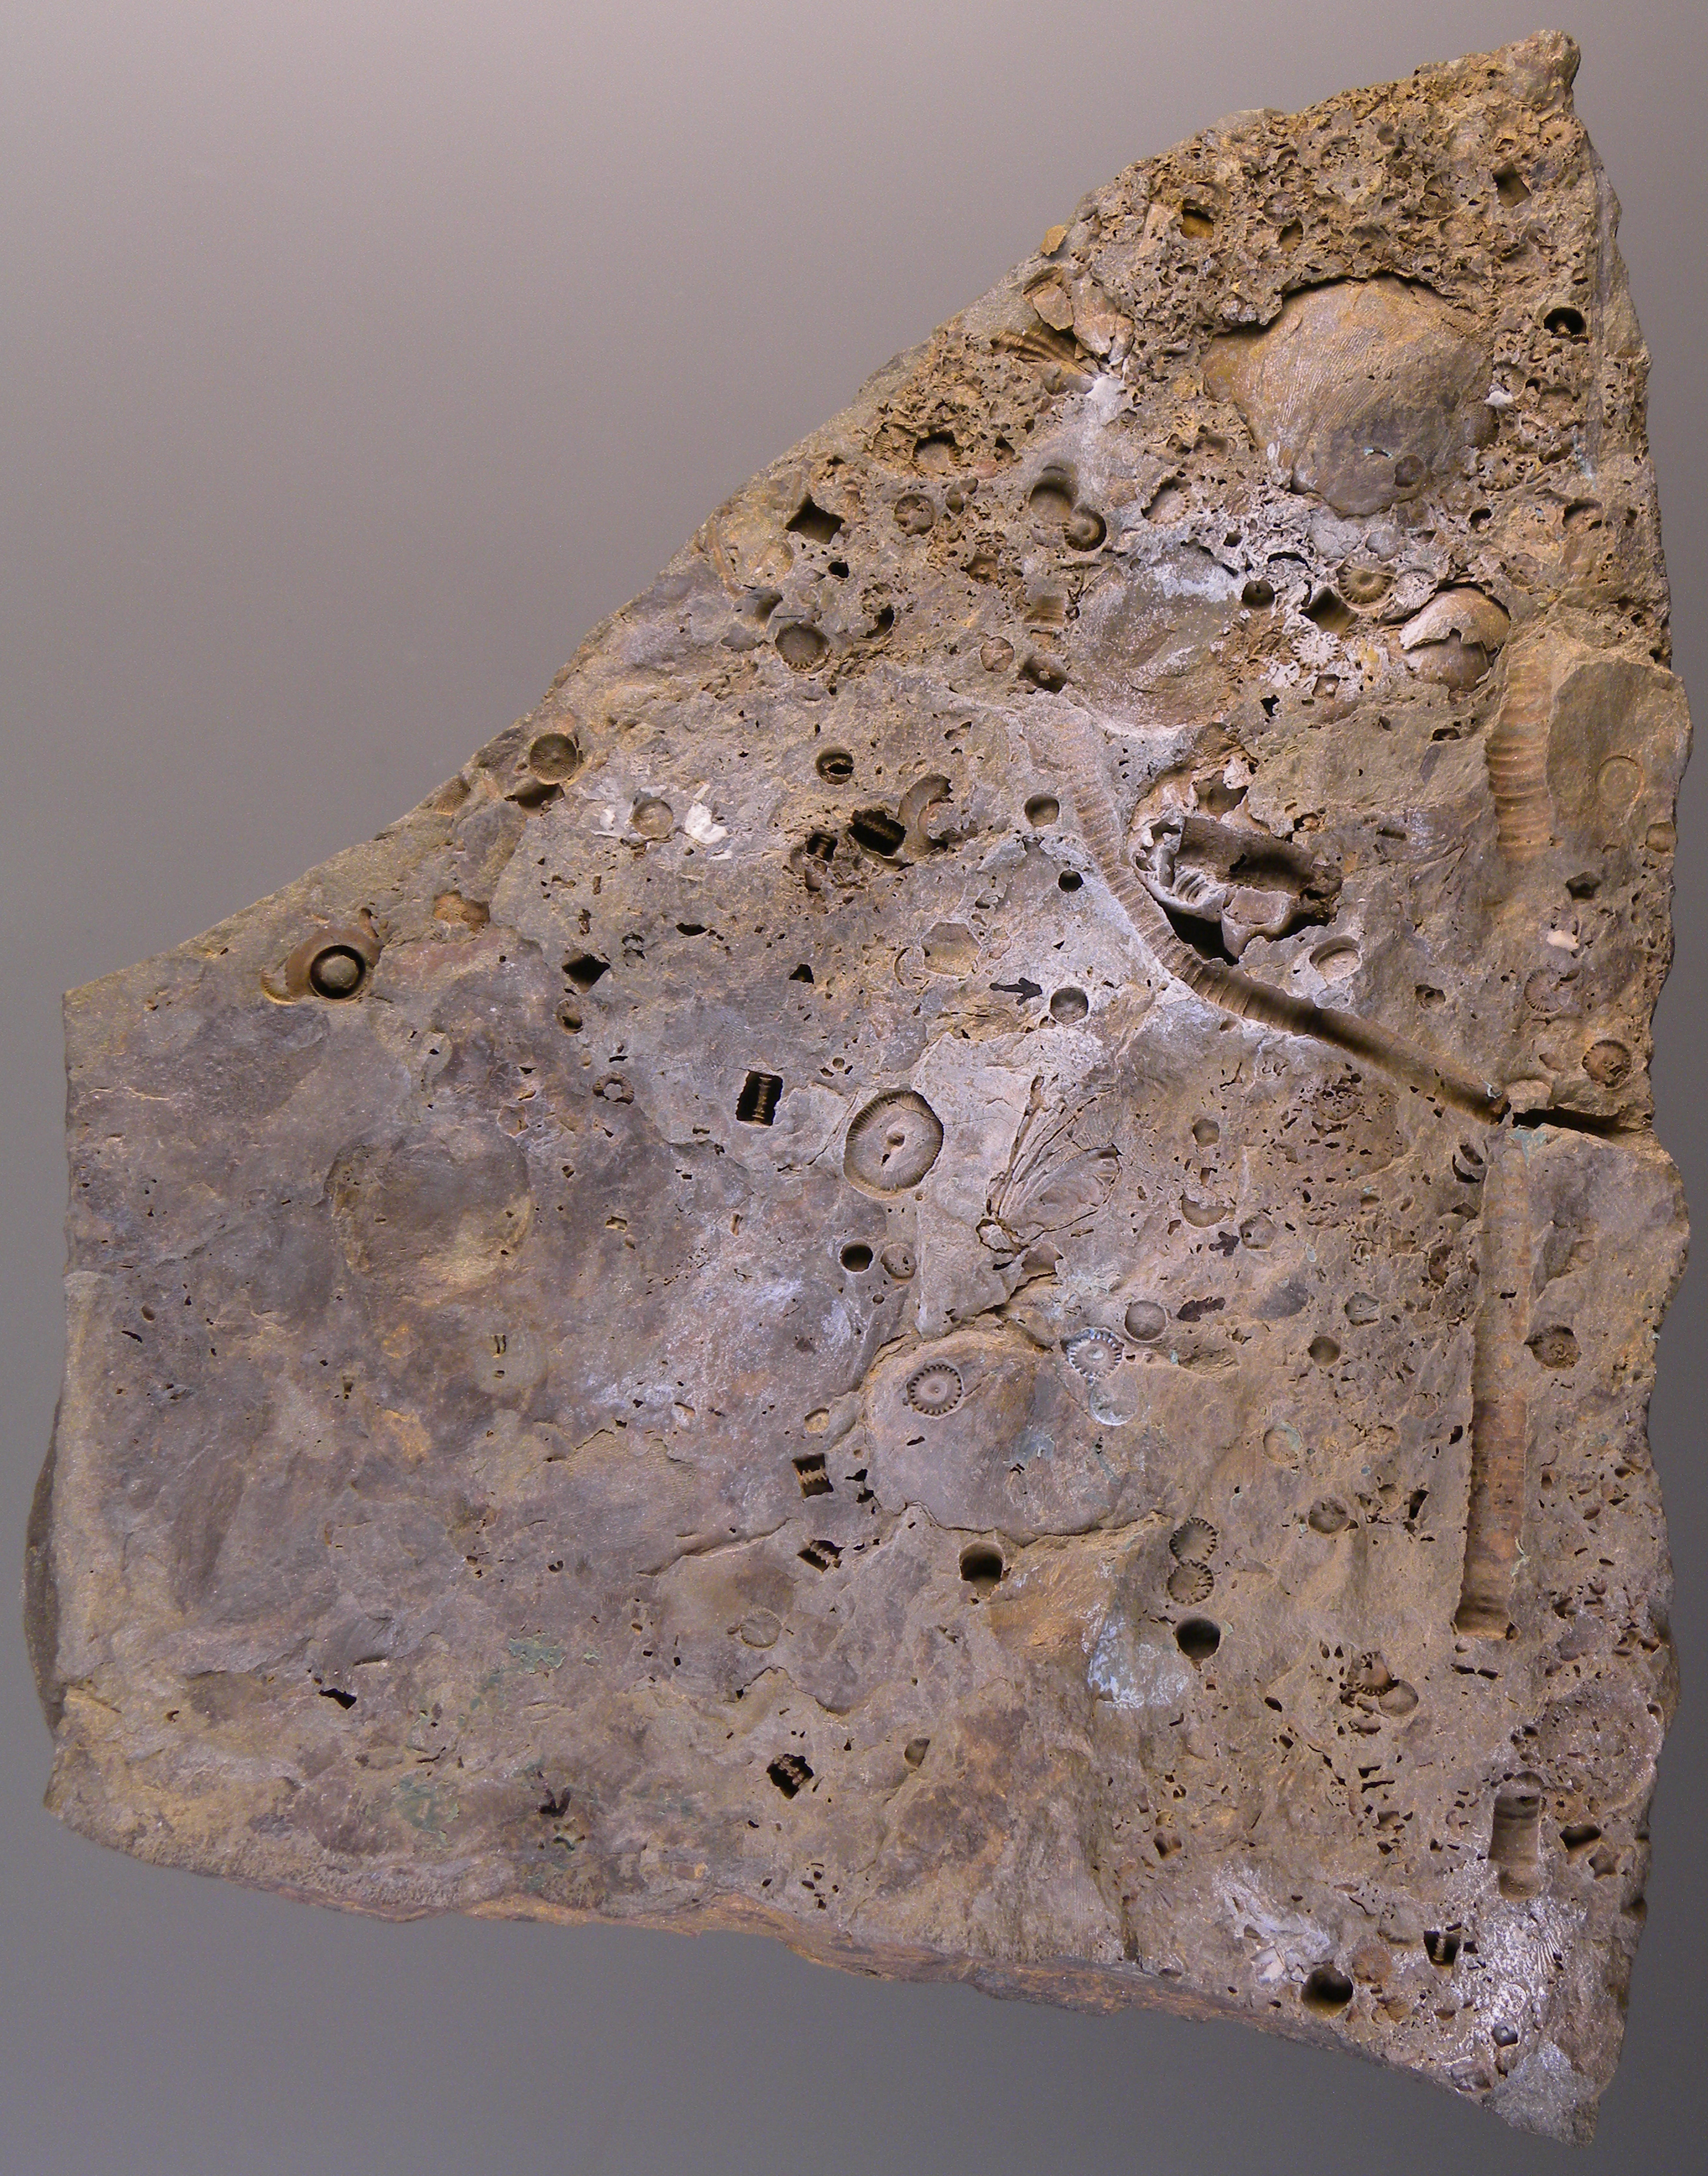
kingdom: Animalia
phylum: Echinodermata
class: Crinoidea
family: Hapalocrinidae
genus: Culicocrinus
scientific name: Culicocrinus
